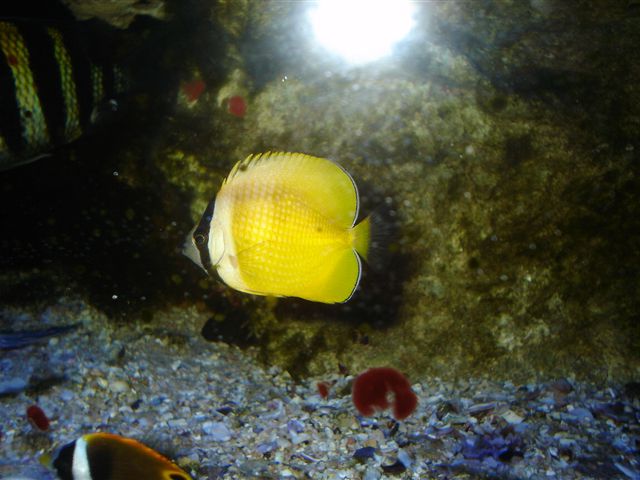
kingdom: Animalia
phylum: Chordata
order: Perciformes
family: Chaetodontidae
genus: Chaetodon
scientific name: Chaetodon kleinii
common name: Klein's butterflyfish
